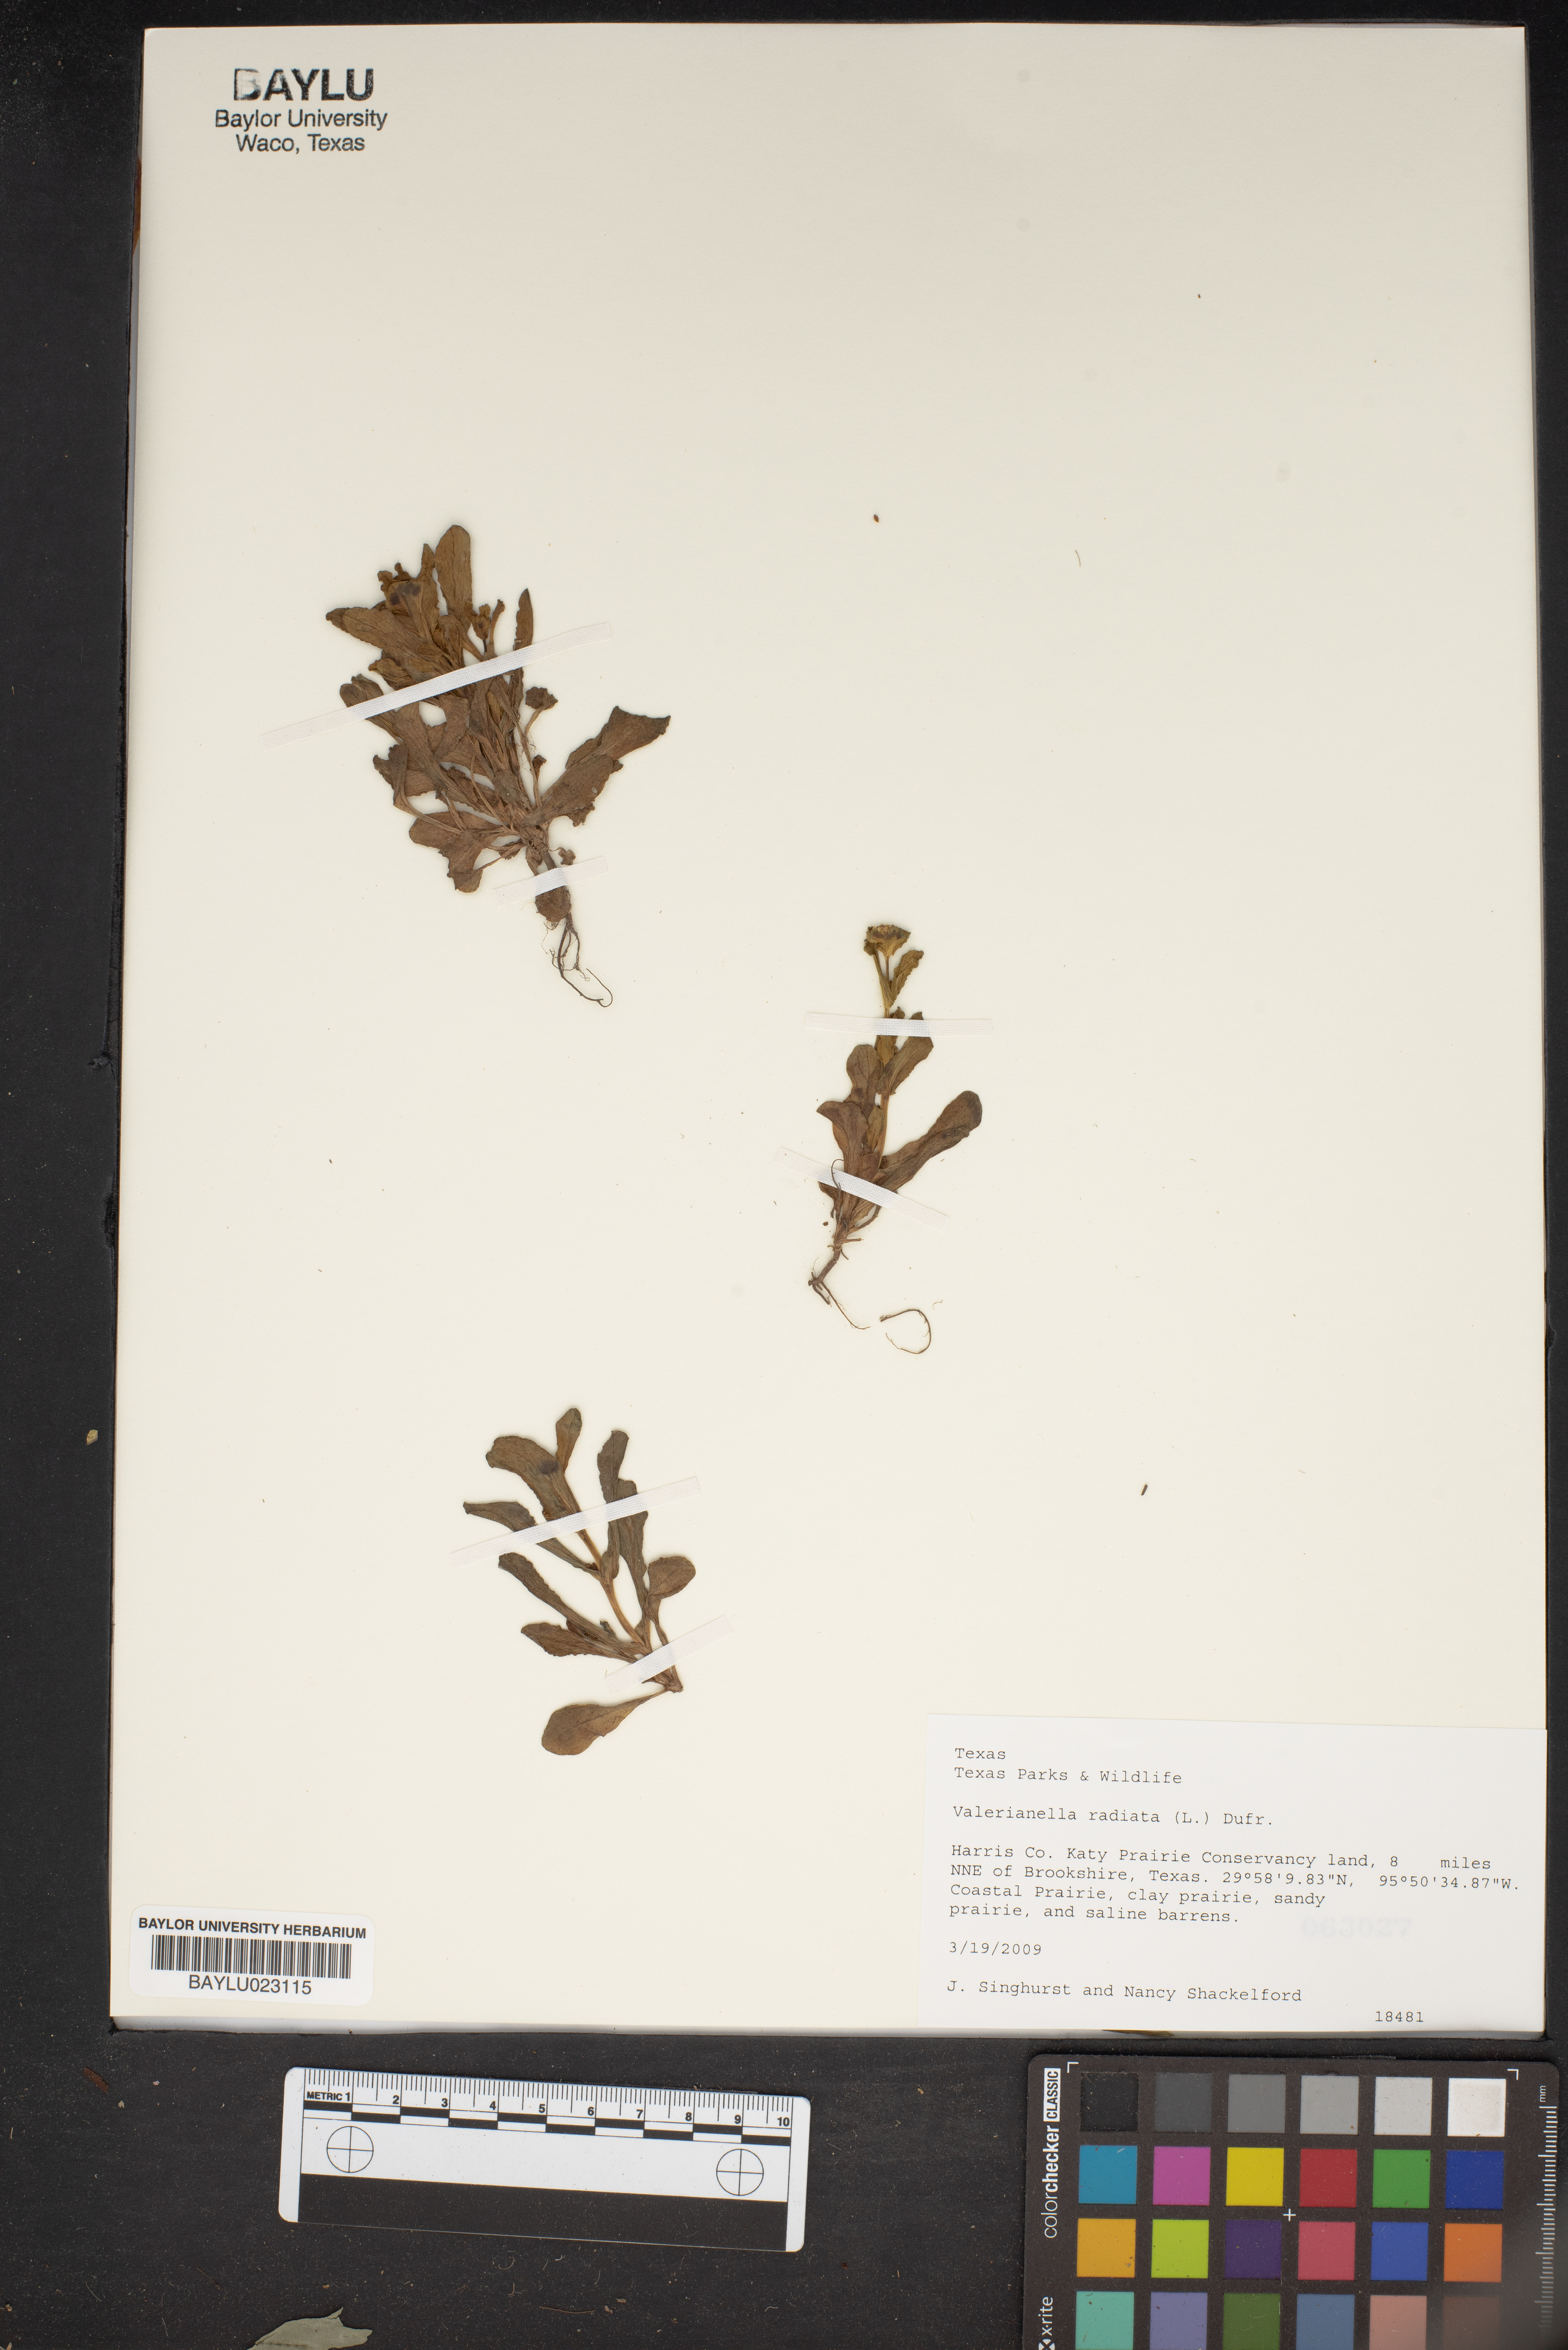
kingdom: Plantae
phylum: Tracheophyta
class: Magnoliopsida
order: Dipsacales
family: Caprifoliaceae
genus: Valerianella
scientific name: Valerianella radiata
